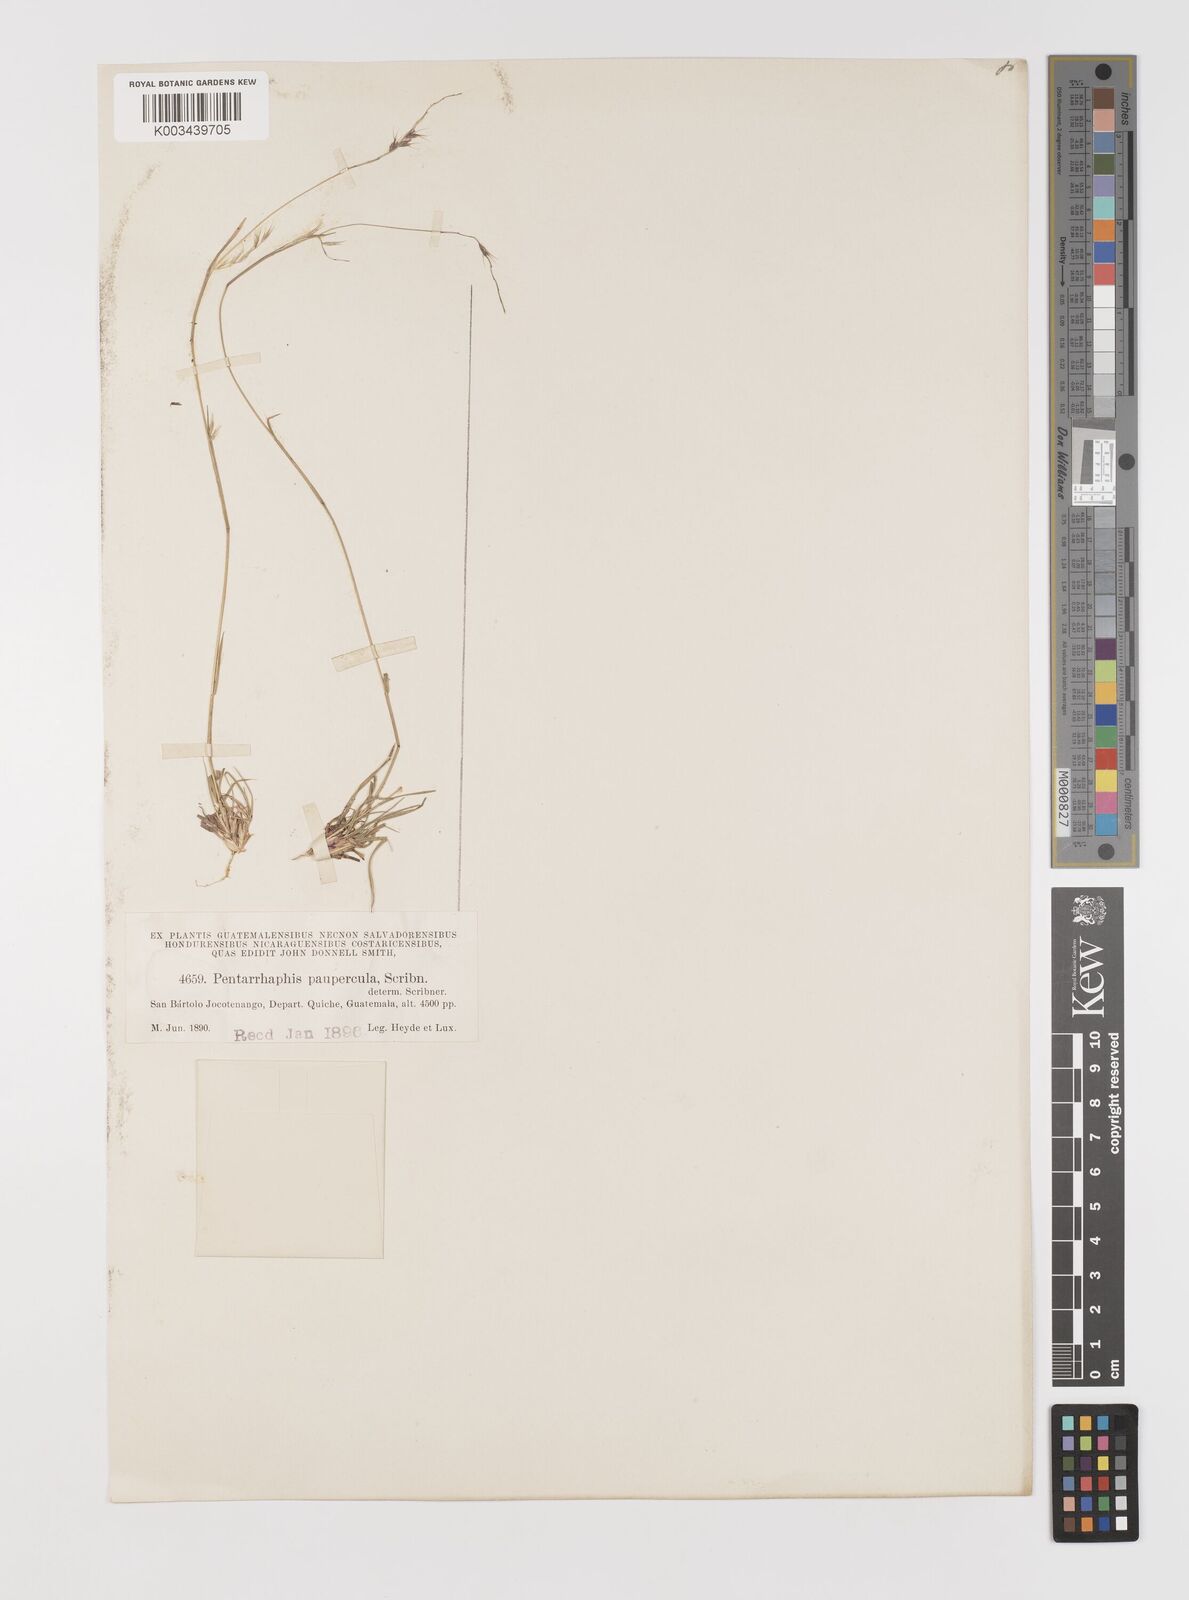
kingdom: Plantae
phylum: Tracheophyta
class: Liliopsida
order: Poales
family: Poaceae
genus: Bouteloua
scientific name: Bouteloua polymorpha
